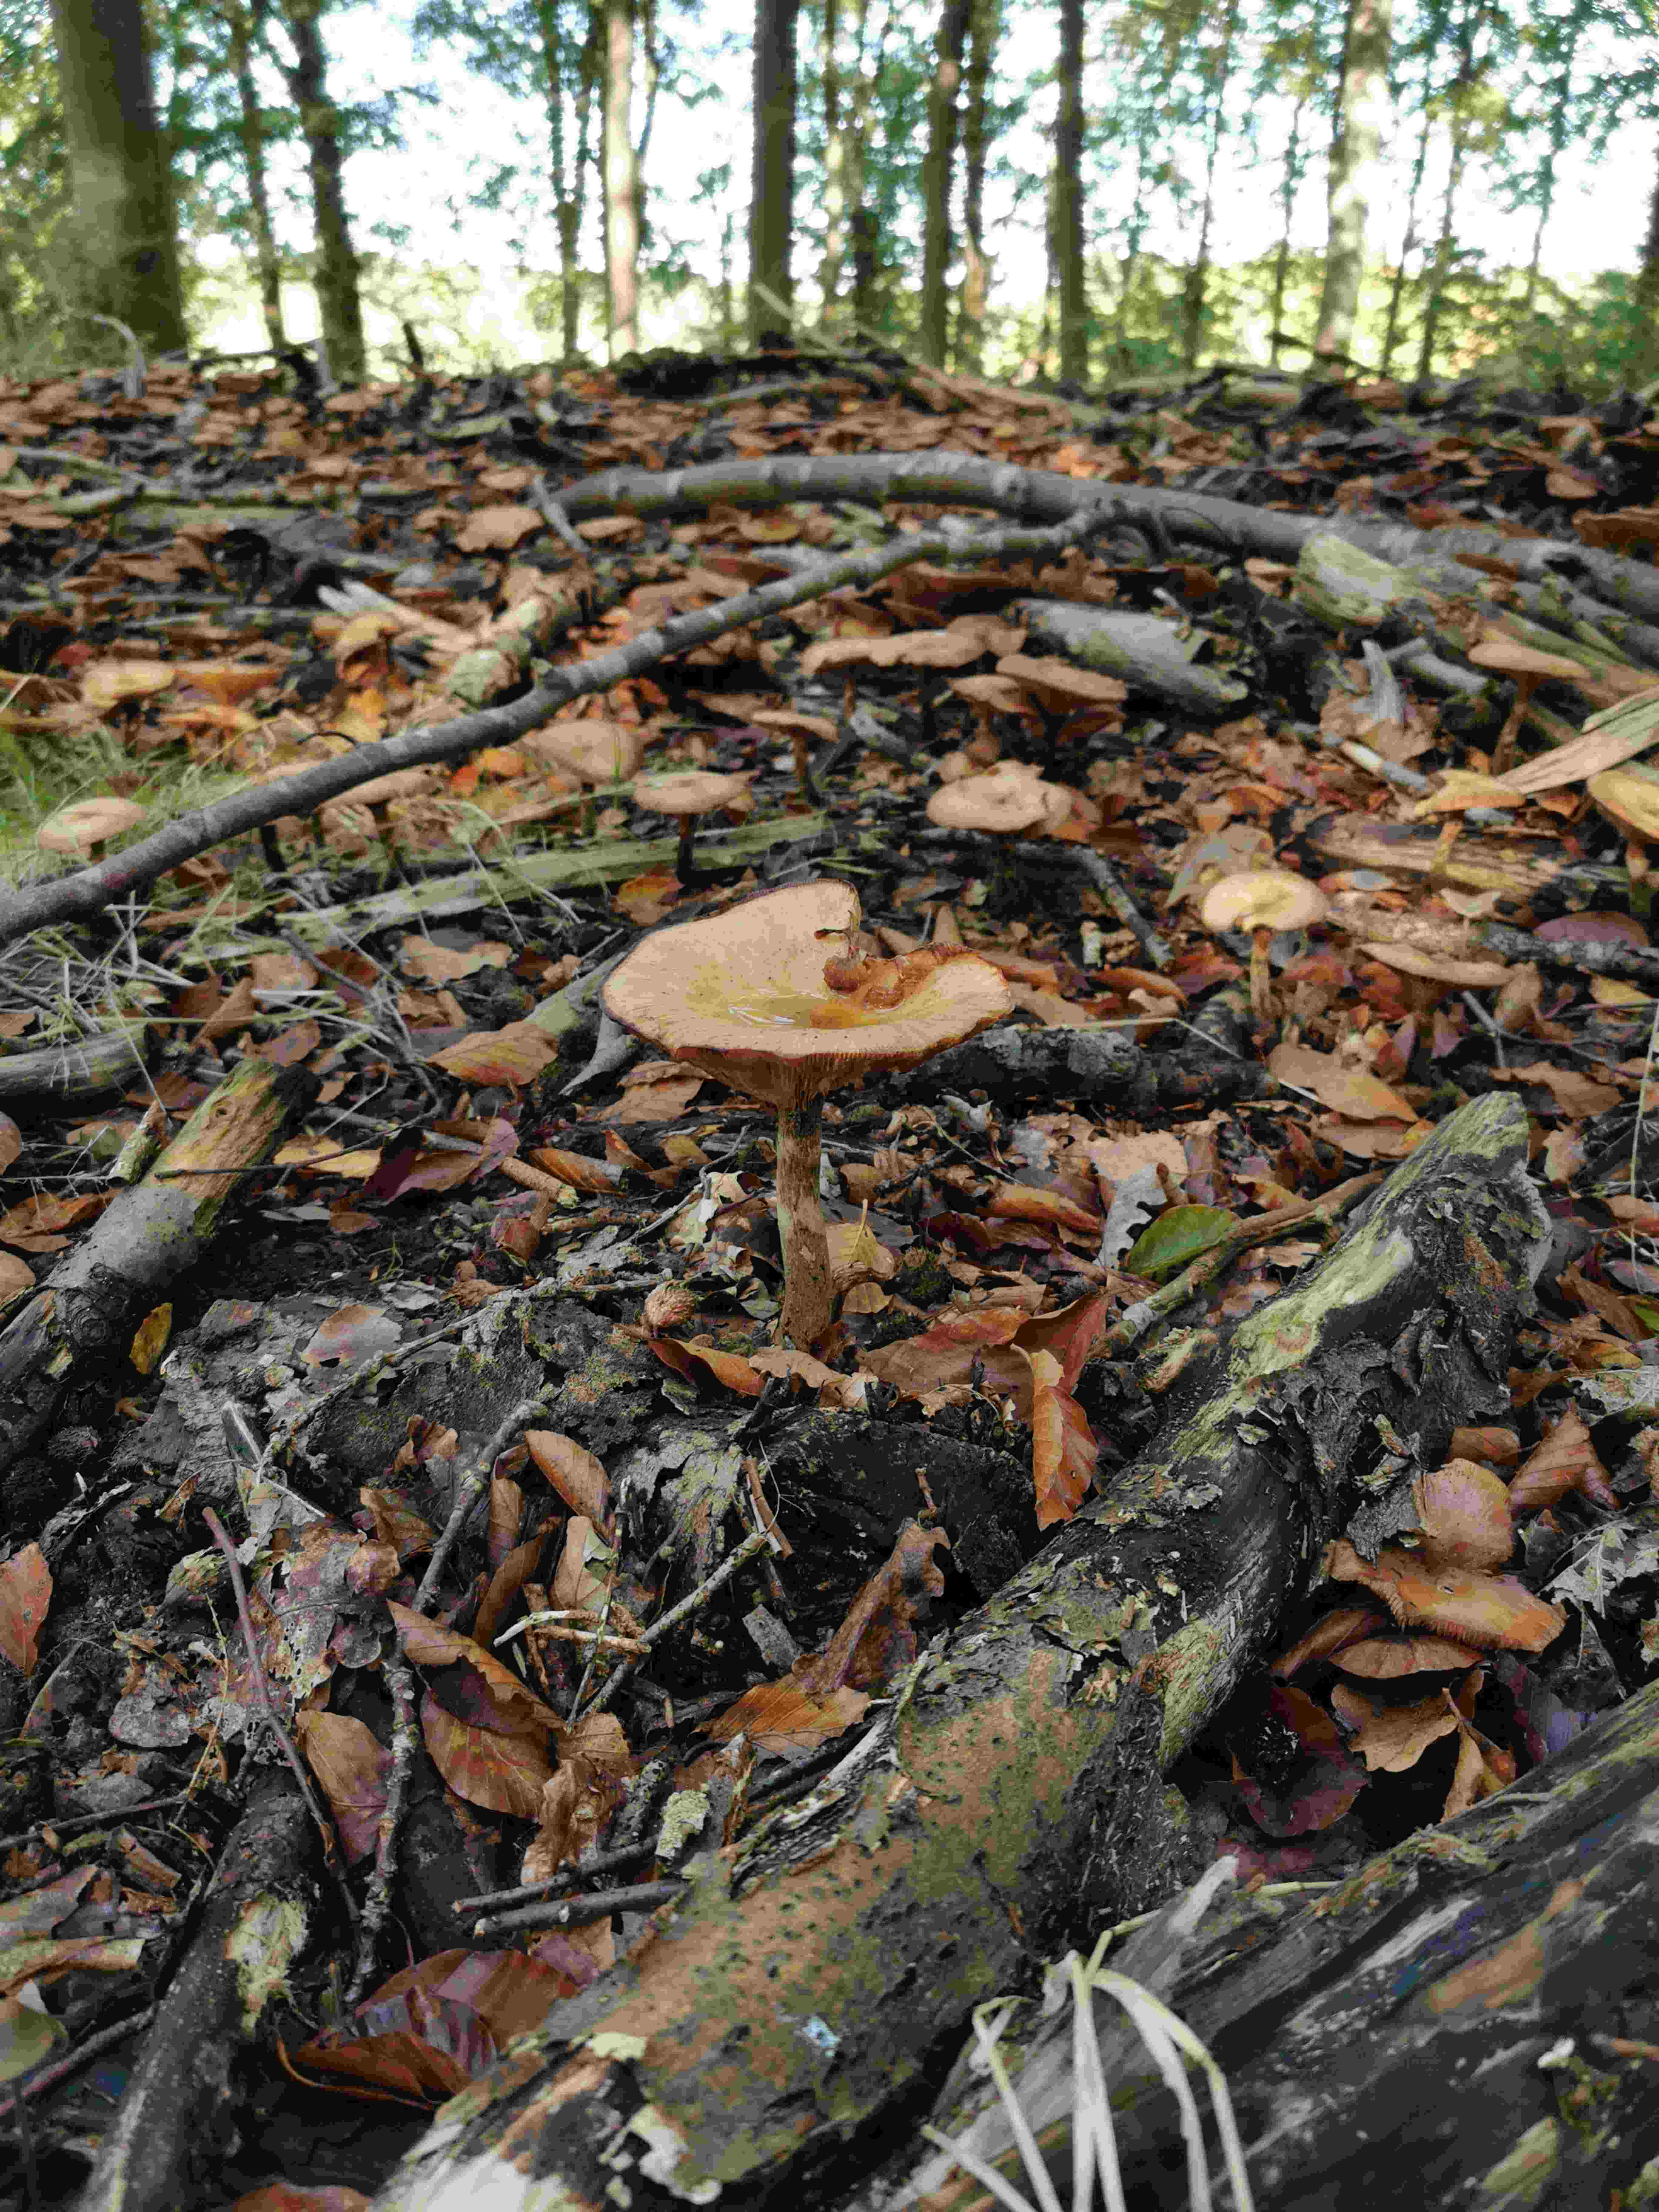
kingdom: Fungi
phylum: Basidiomycota
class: Agaricomycetes
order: Agaricales
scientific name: Agaricales
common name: champignonordenen
